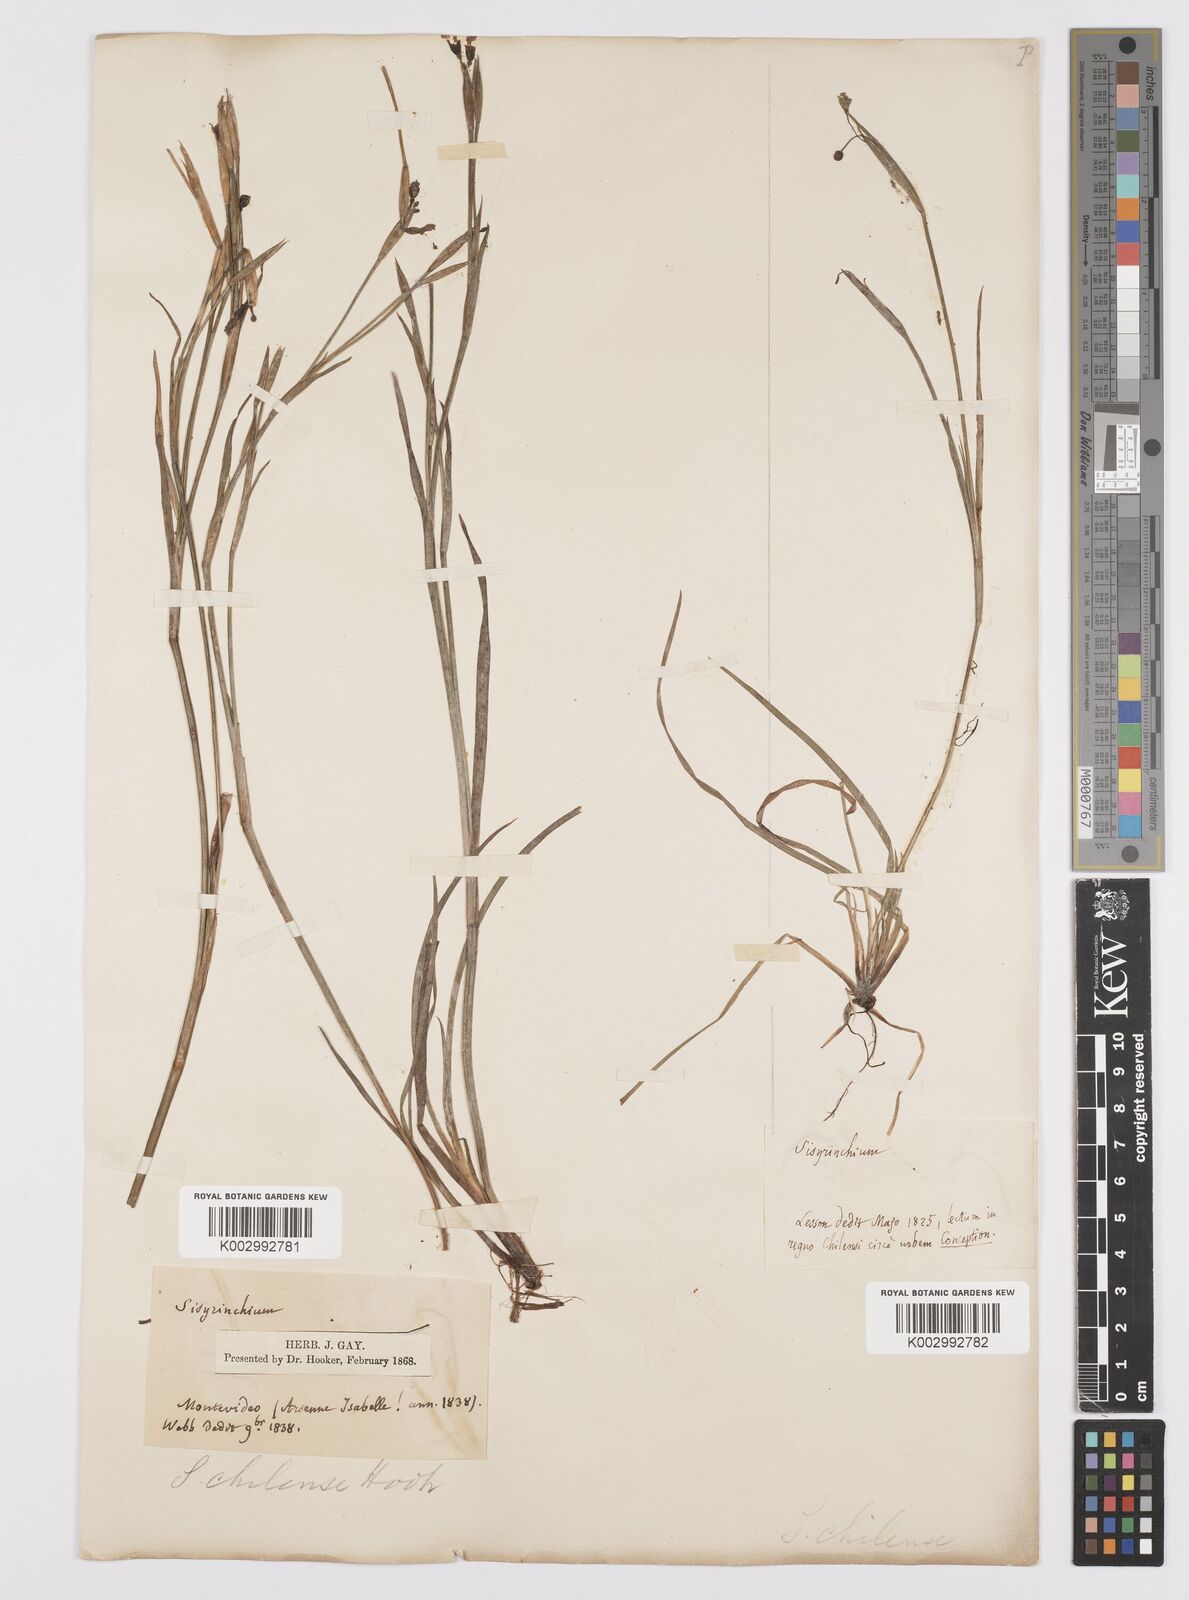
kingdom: Plantae
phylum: Tracheophyta
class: Liliopsida
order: Asparagales
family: Iridaceae
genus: Sisyrinchium
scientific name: Sisyrinchium chilense
